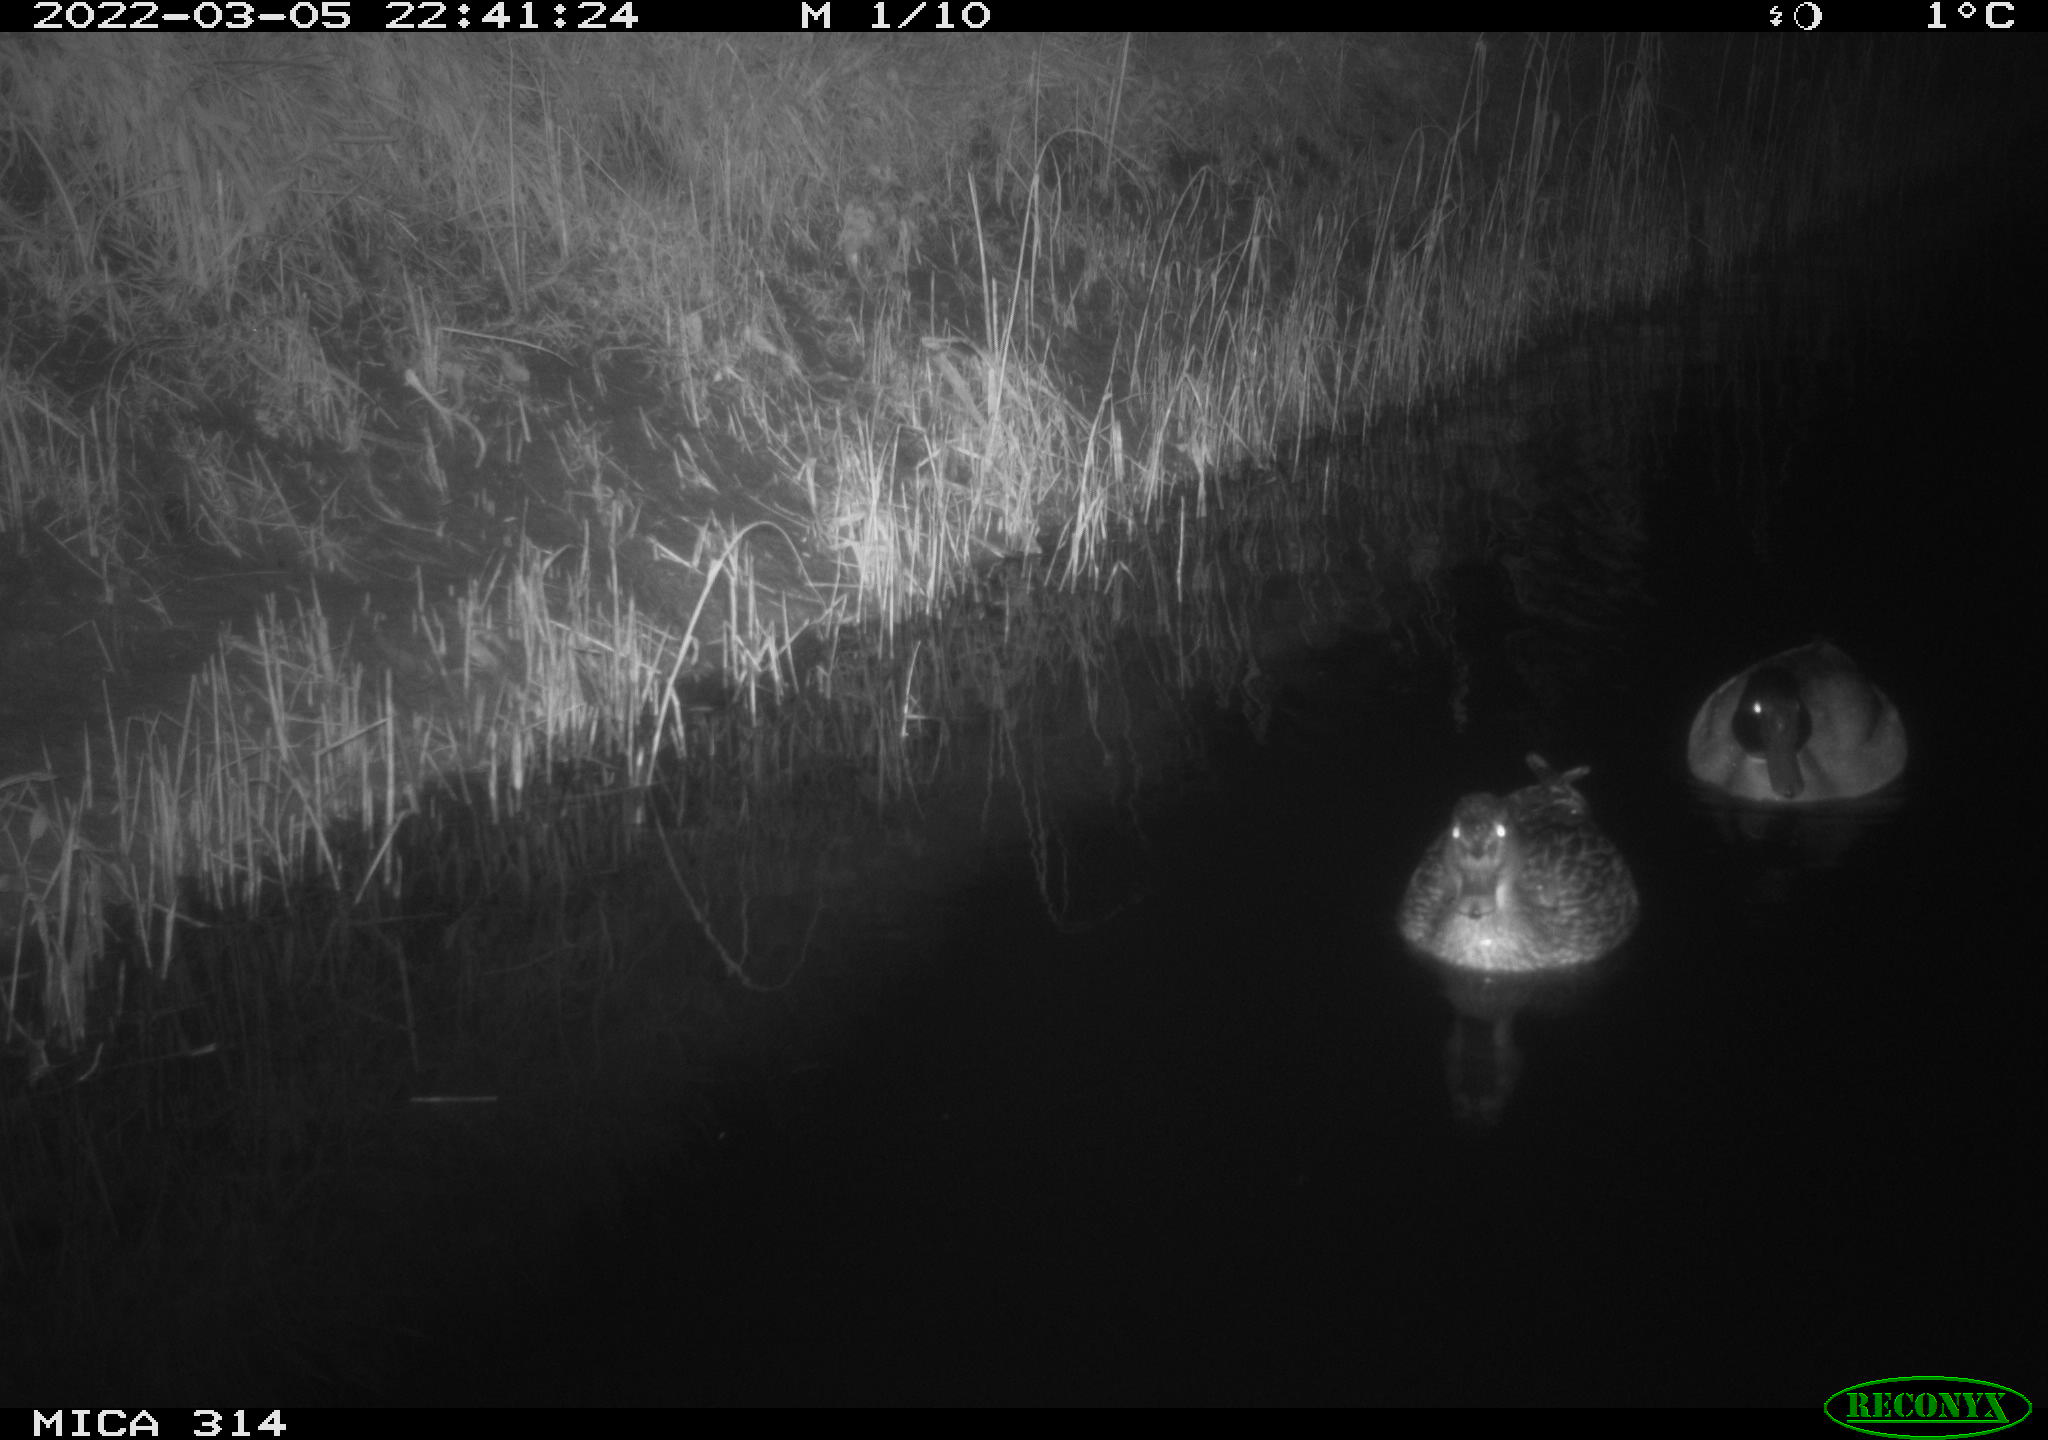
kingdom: Animalia
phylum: Chordata
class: Aves
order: Anseriformes
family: Anatidae
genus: Anas
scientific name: Anas platyrhynchos
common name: Mallard
